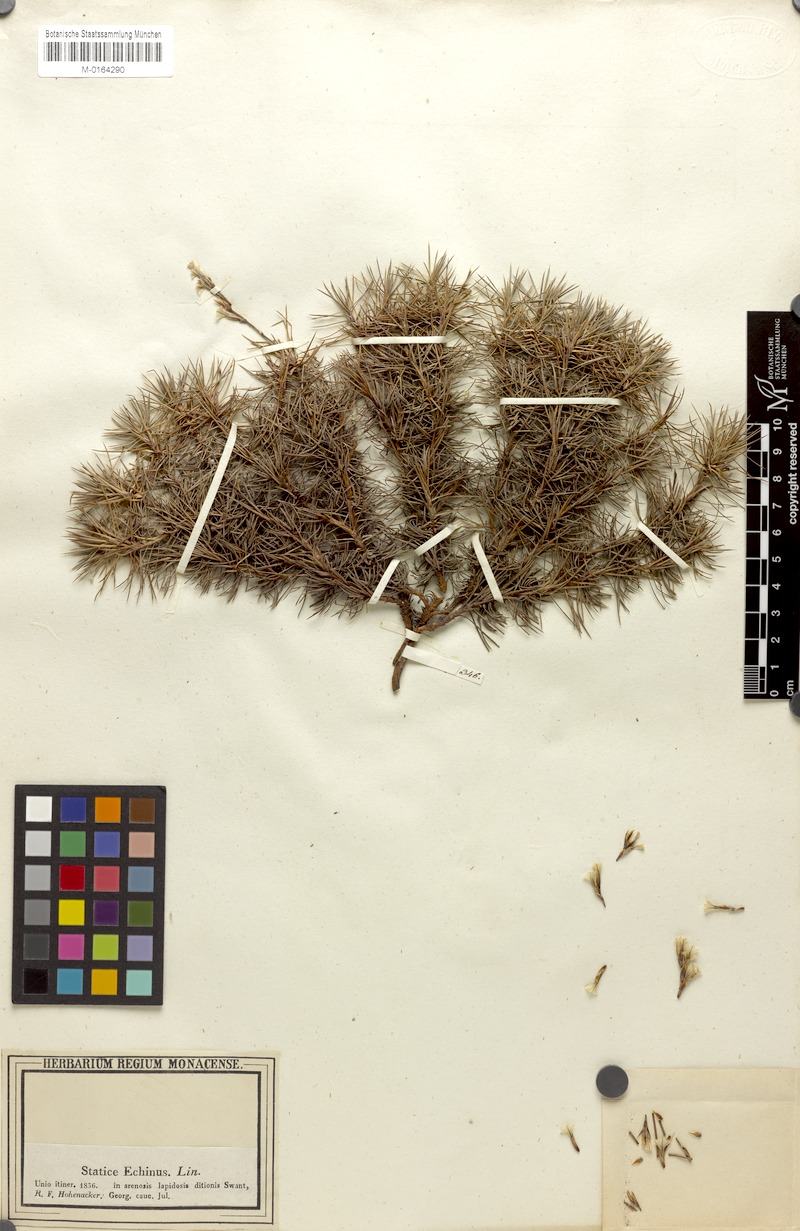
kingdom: Plantae
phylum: Tracheophyta
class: Magnoliopsida
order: Caryophyllales
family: Plumbaginaceae
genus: Acantholimon
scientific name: Acantholimon hohenackeri
